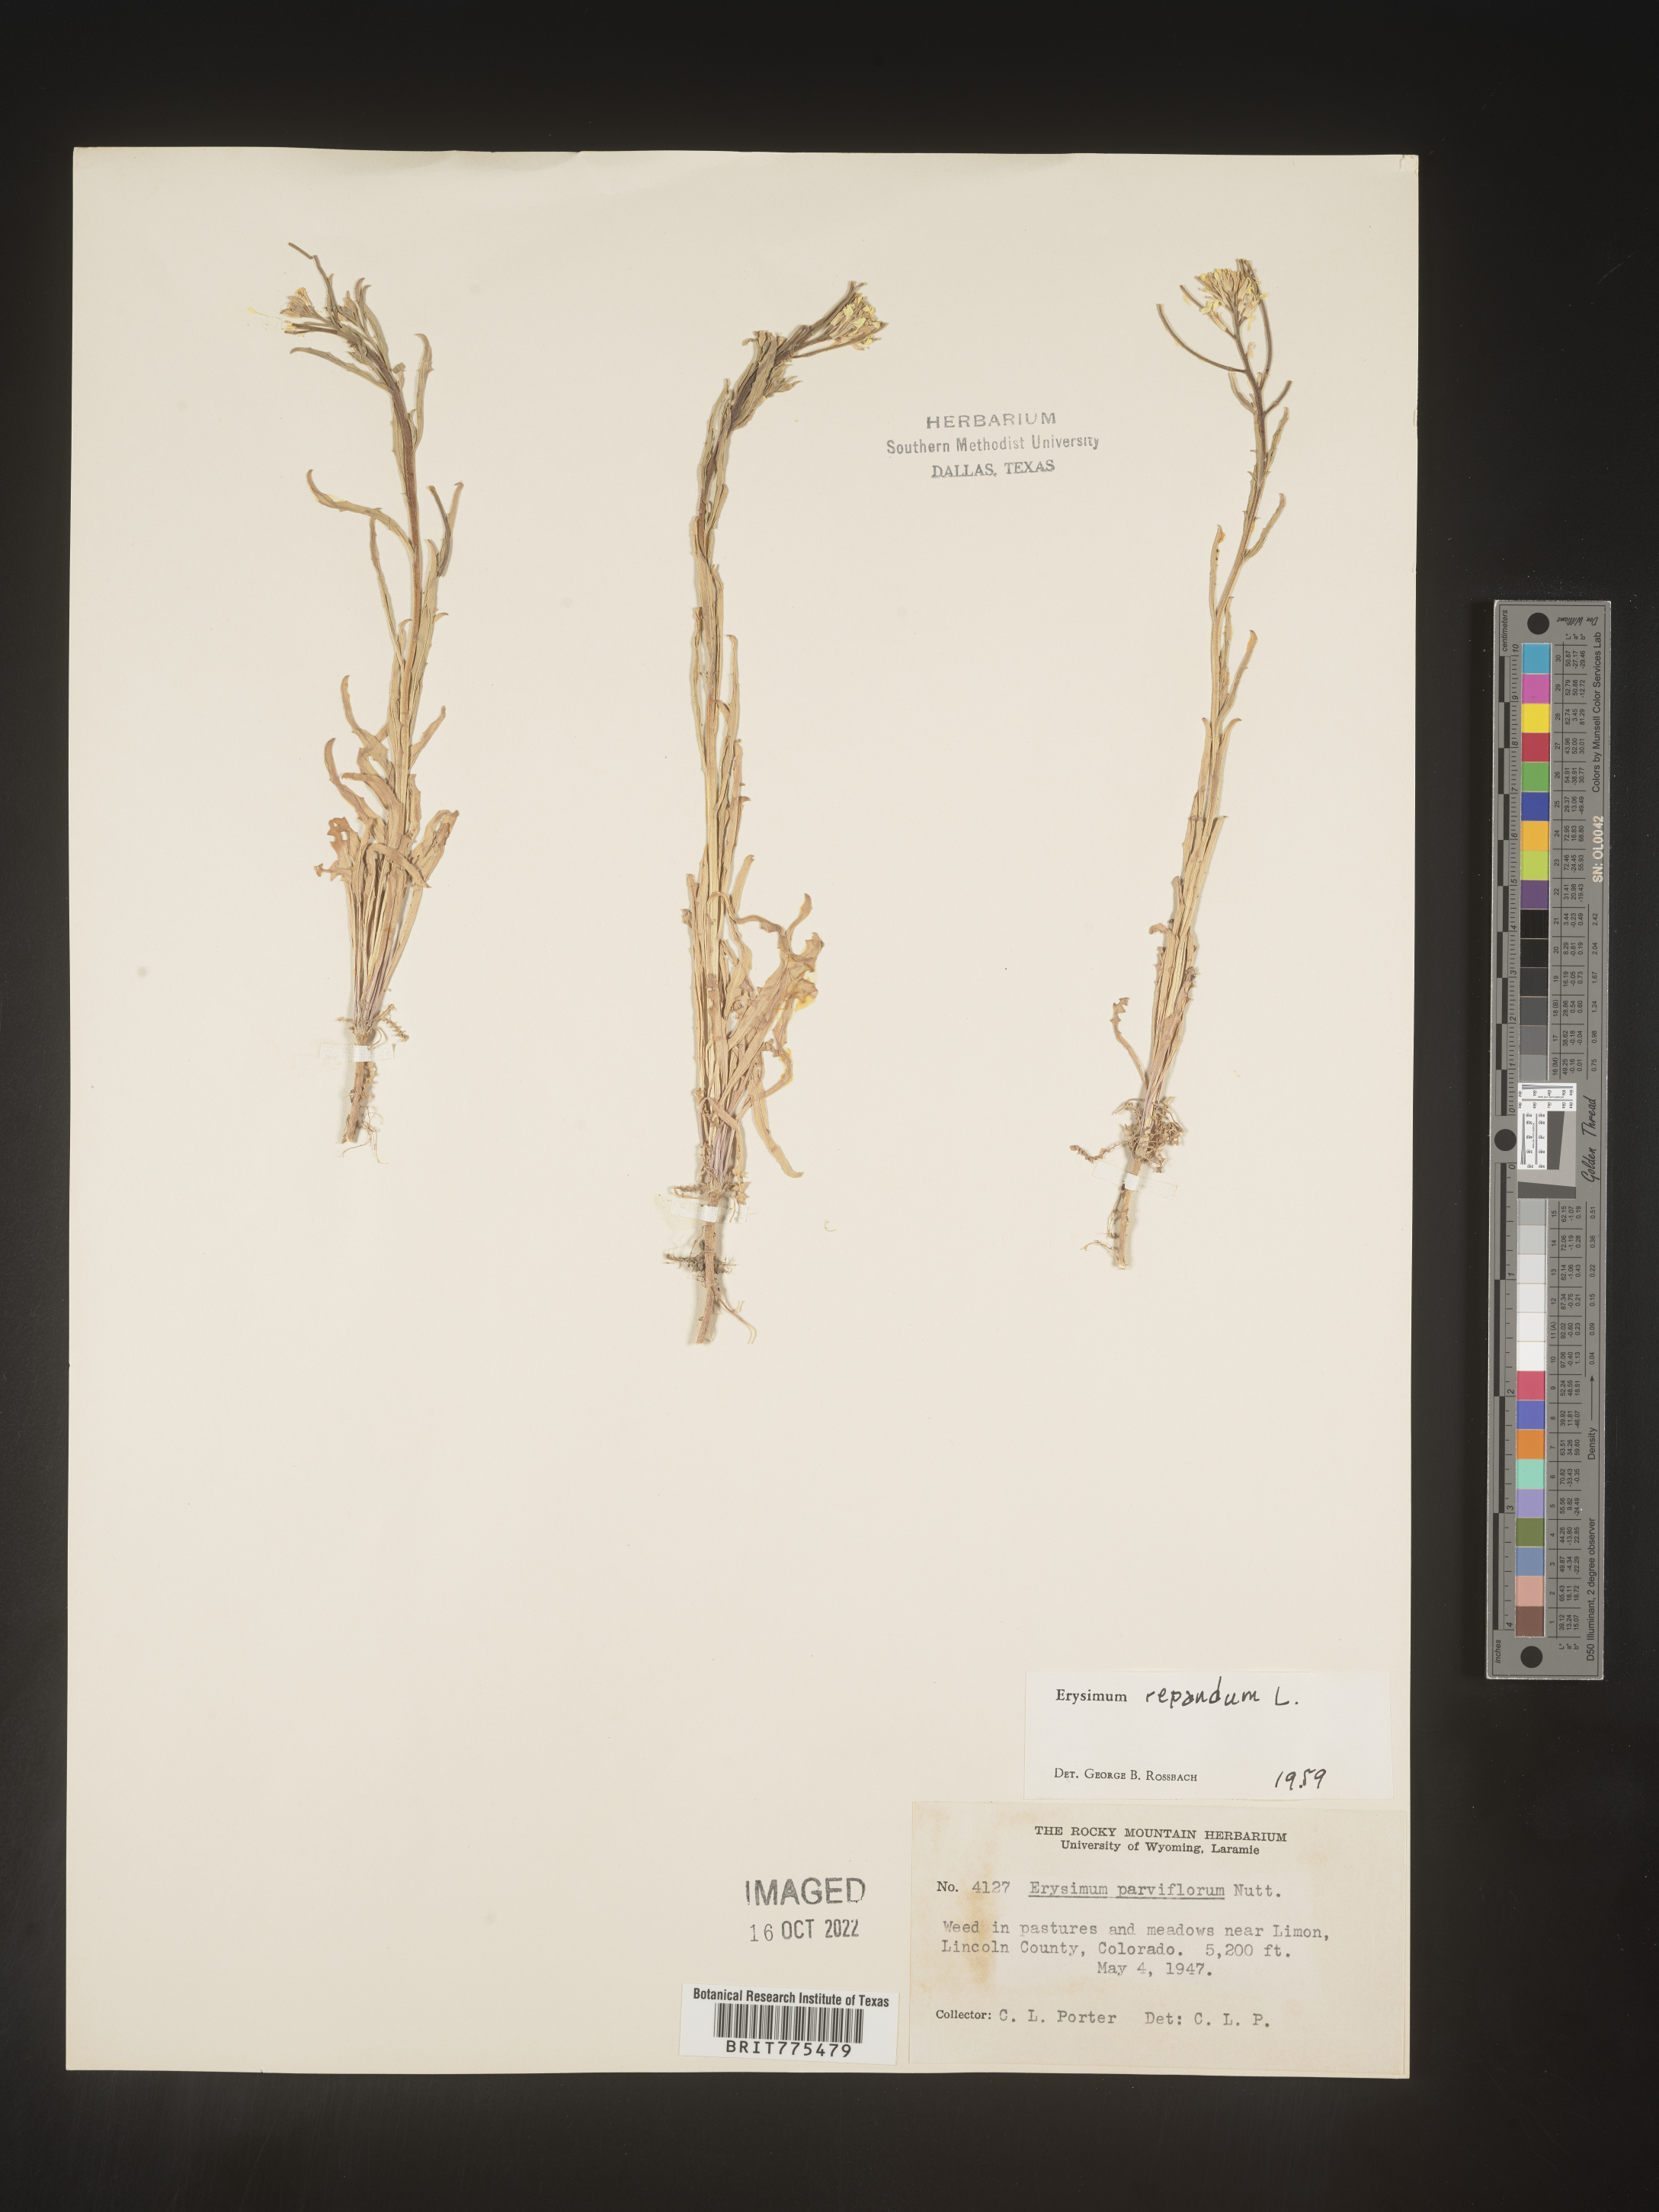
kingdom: Plantae
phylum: Tracheophyta
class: Magnoliopsida
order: Brassicales
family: Brassicaceae
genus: Erysimum
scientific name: Erysimum repandum
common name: Spreading wallflower
